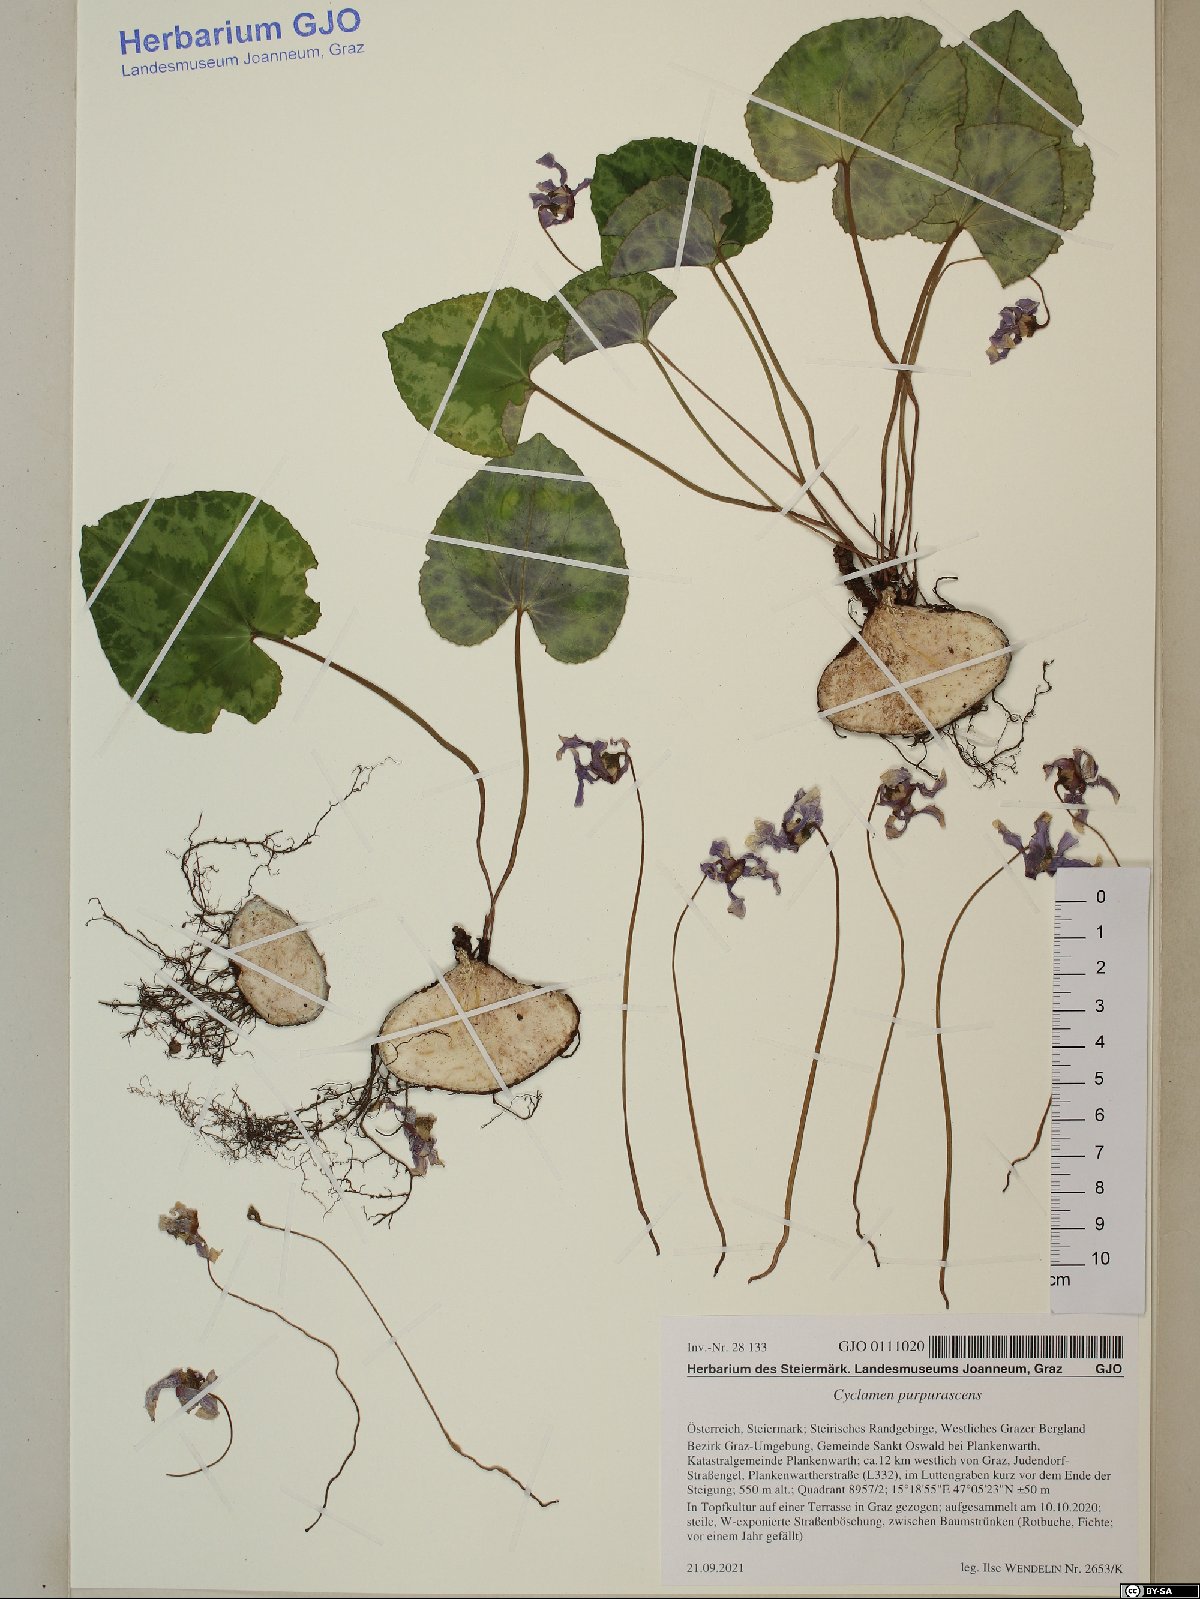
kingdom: Plantae
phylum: Tracheophyta
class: Magnoliopsida
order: Ericales
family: Primulaceae
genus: Cyclamen
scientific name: Cyclamen purpurascens
